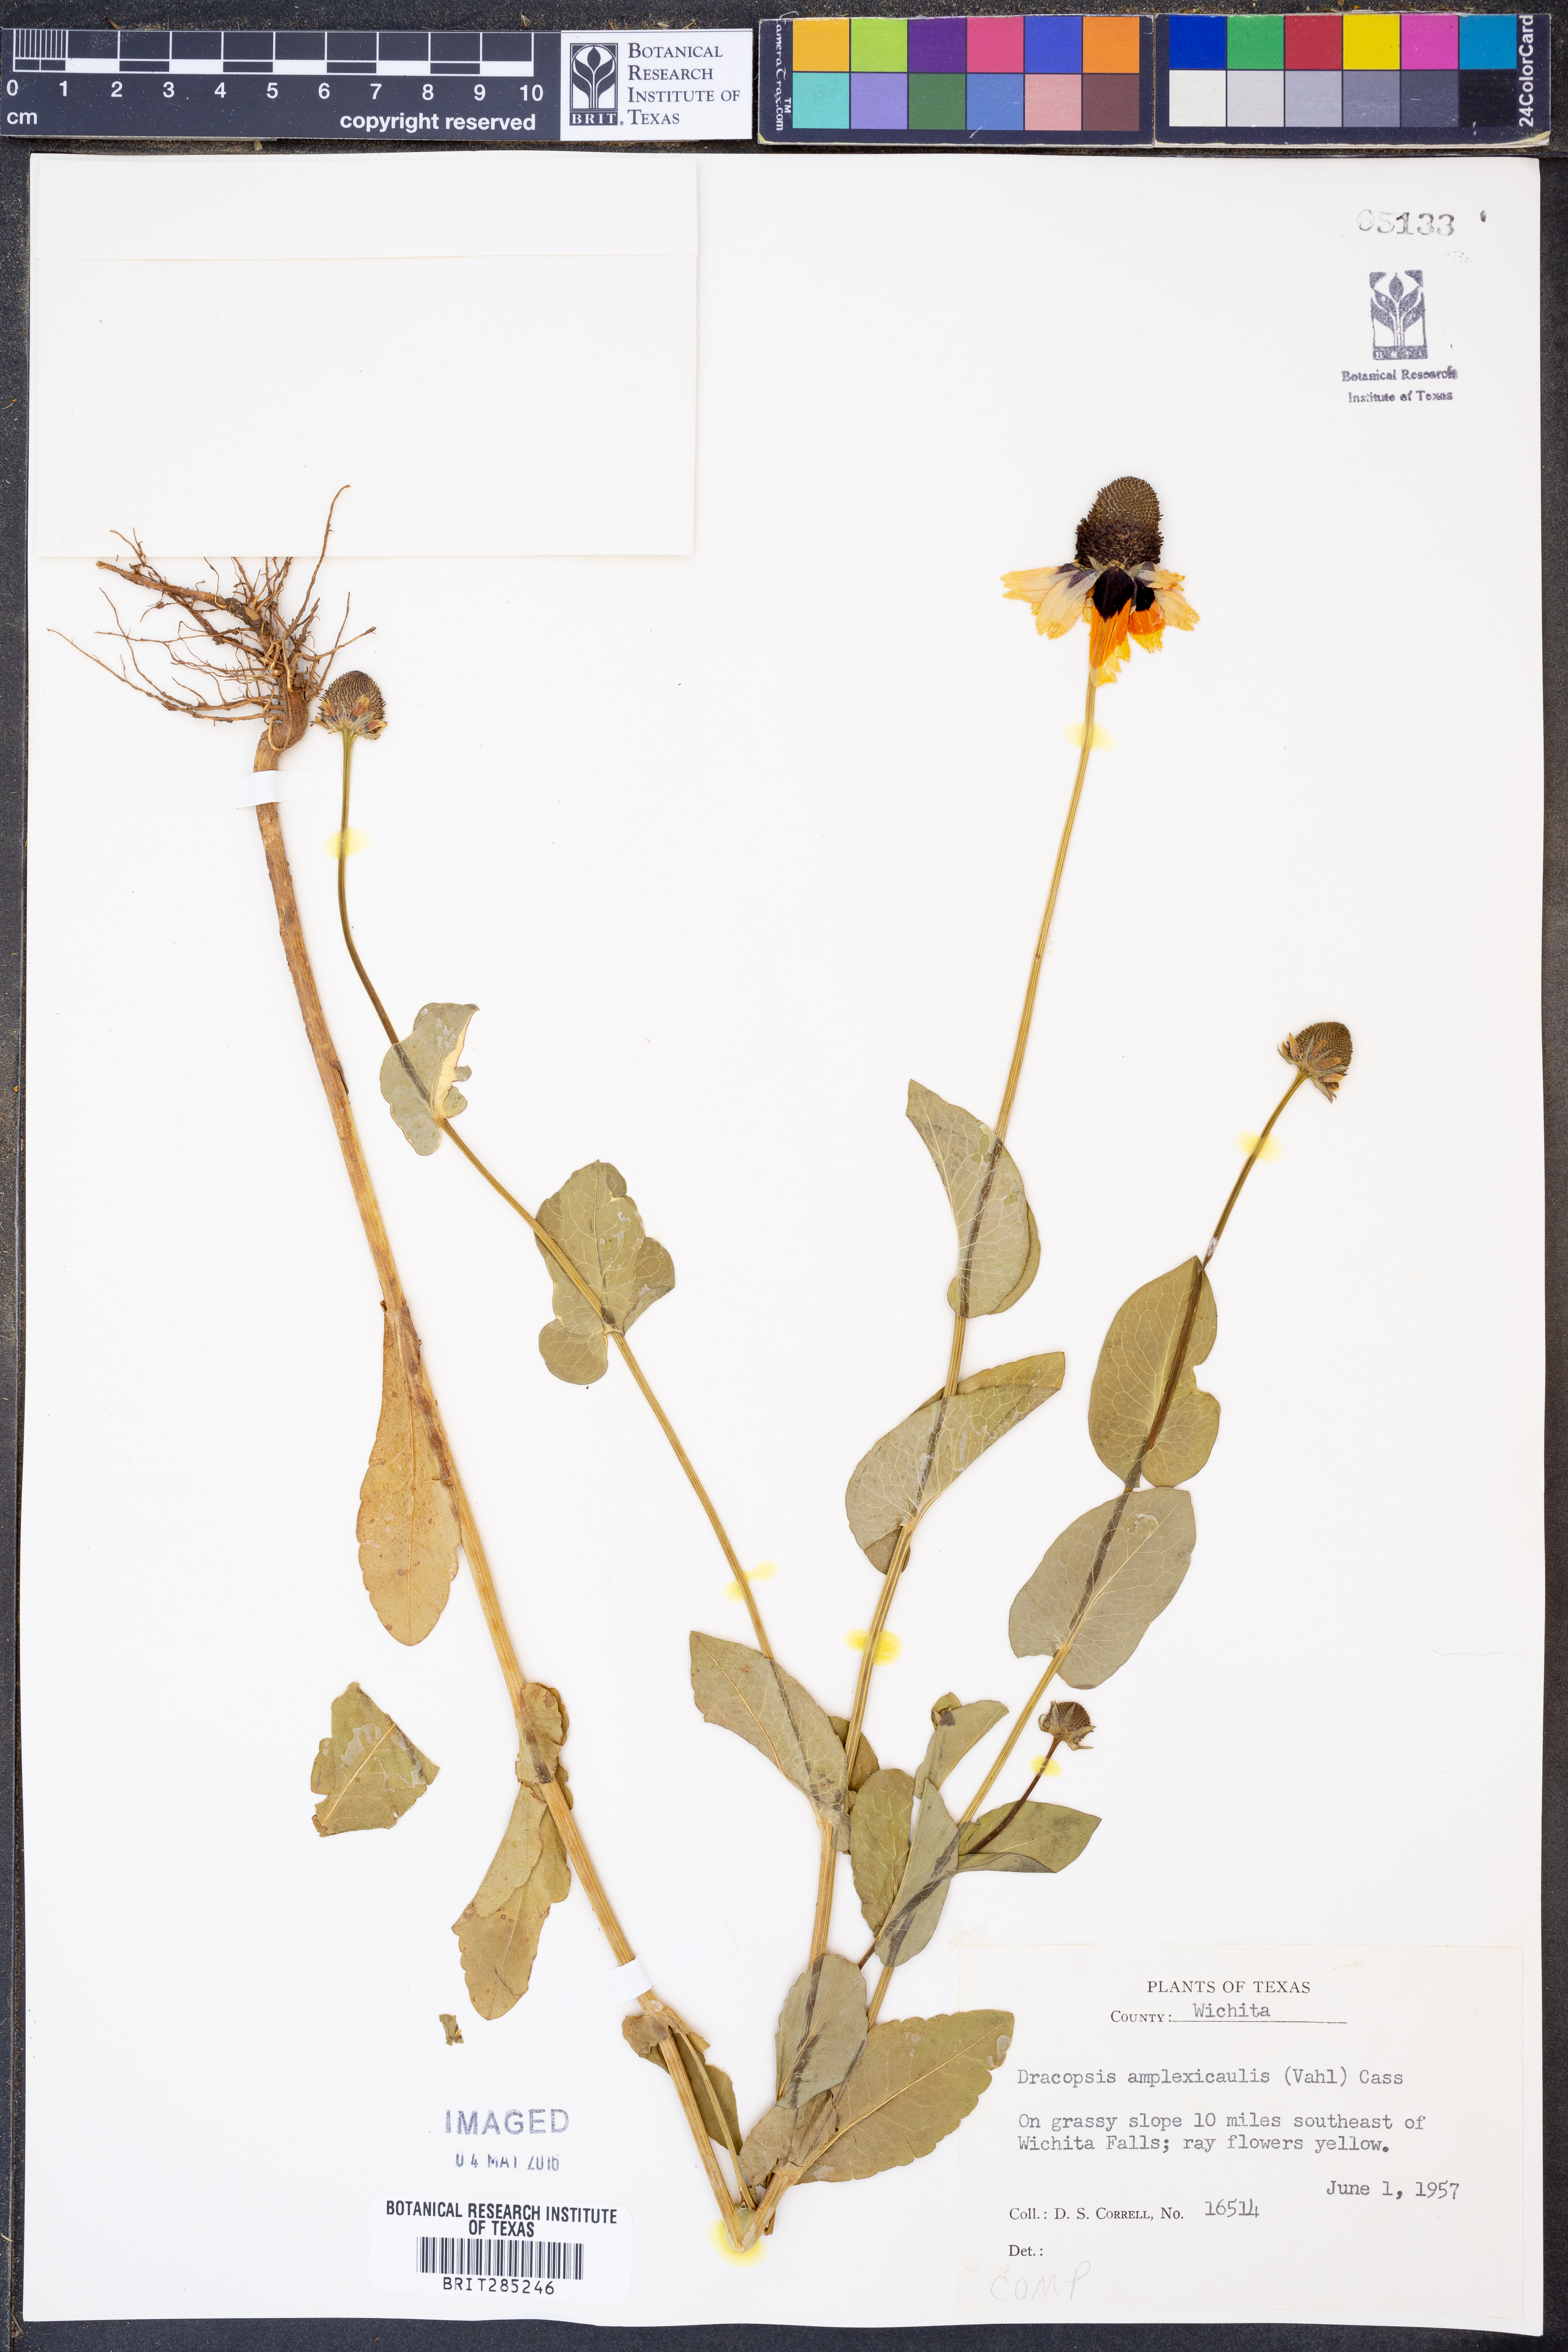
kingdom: Plantae
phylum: Tracheophyta
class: Magnoliopsida
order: Asterales
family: Asteraceae
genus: Rudbeckia
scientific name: Rudbeckia amplexicaulis
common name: Clasping-leaf coneflower
